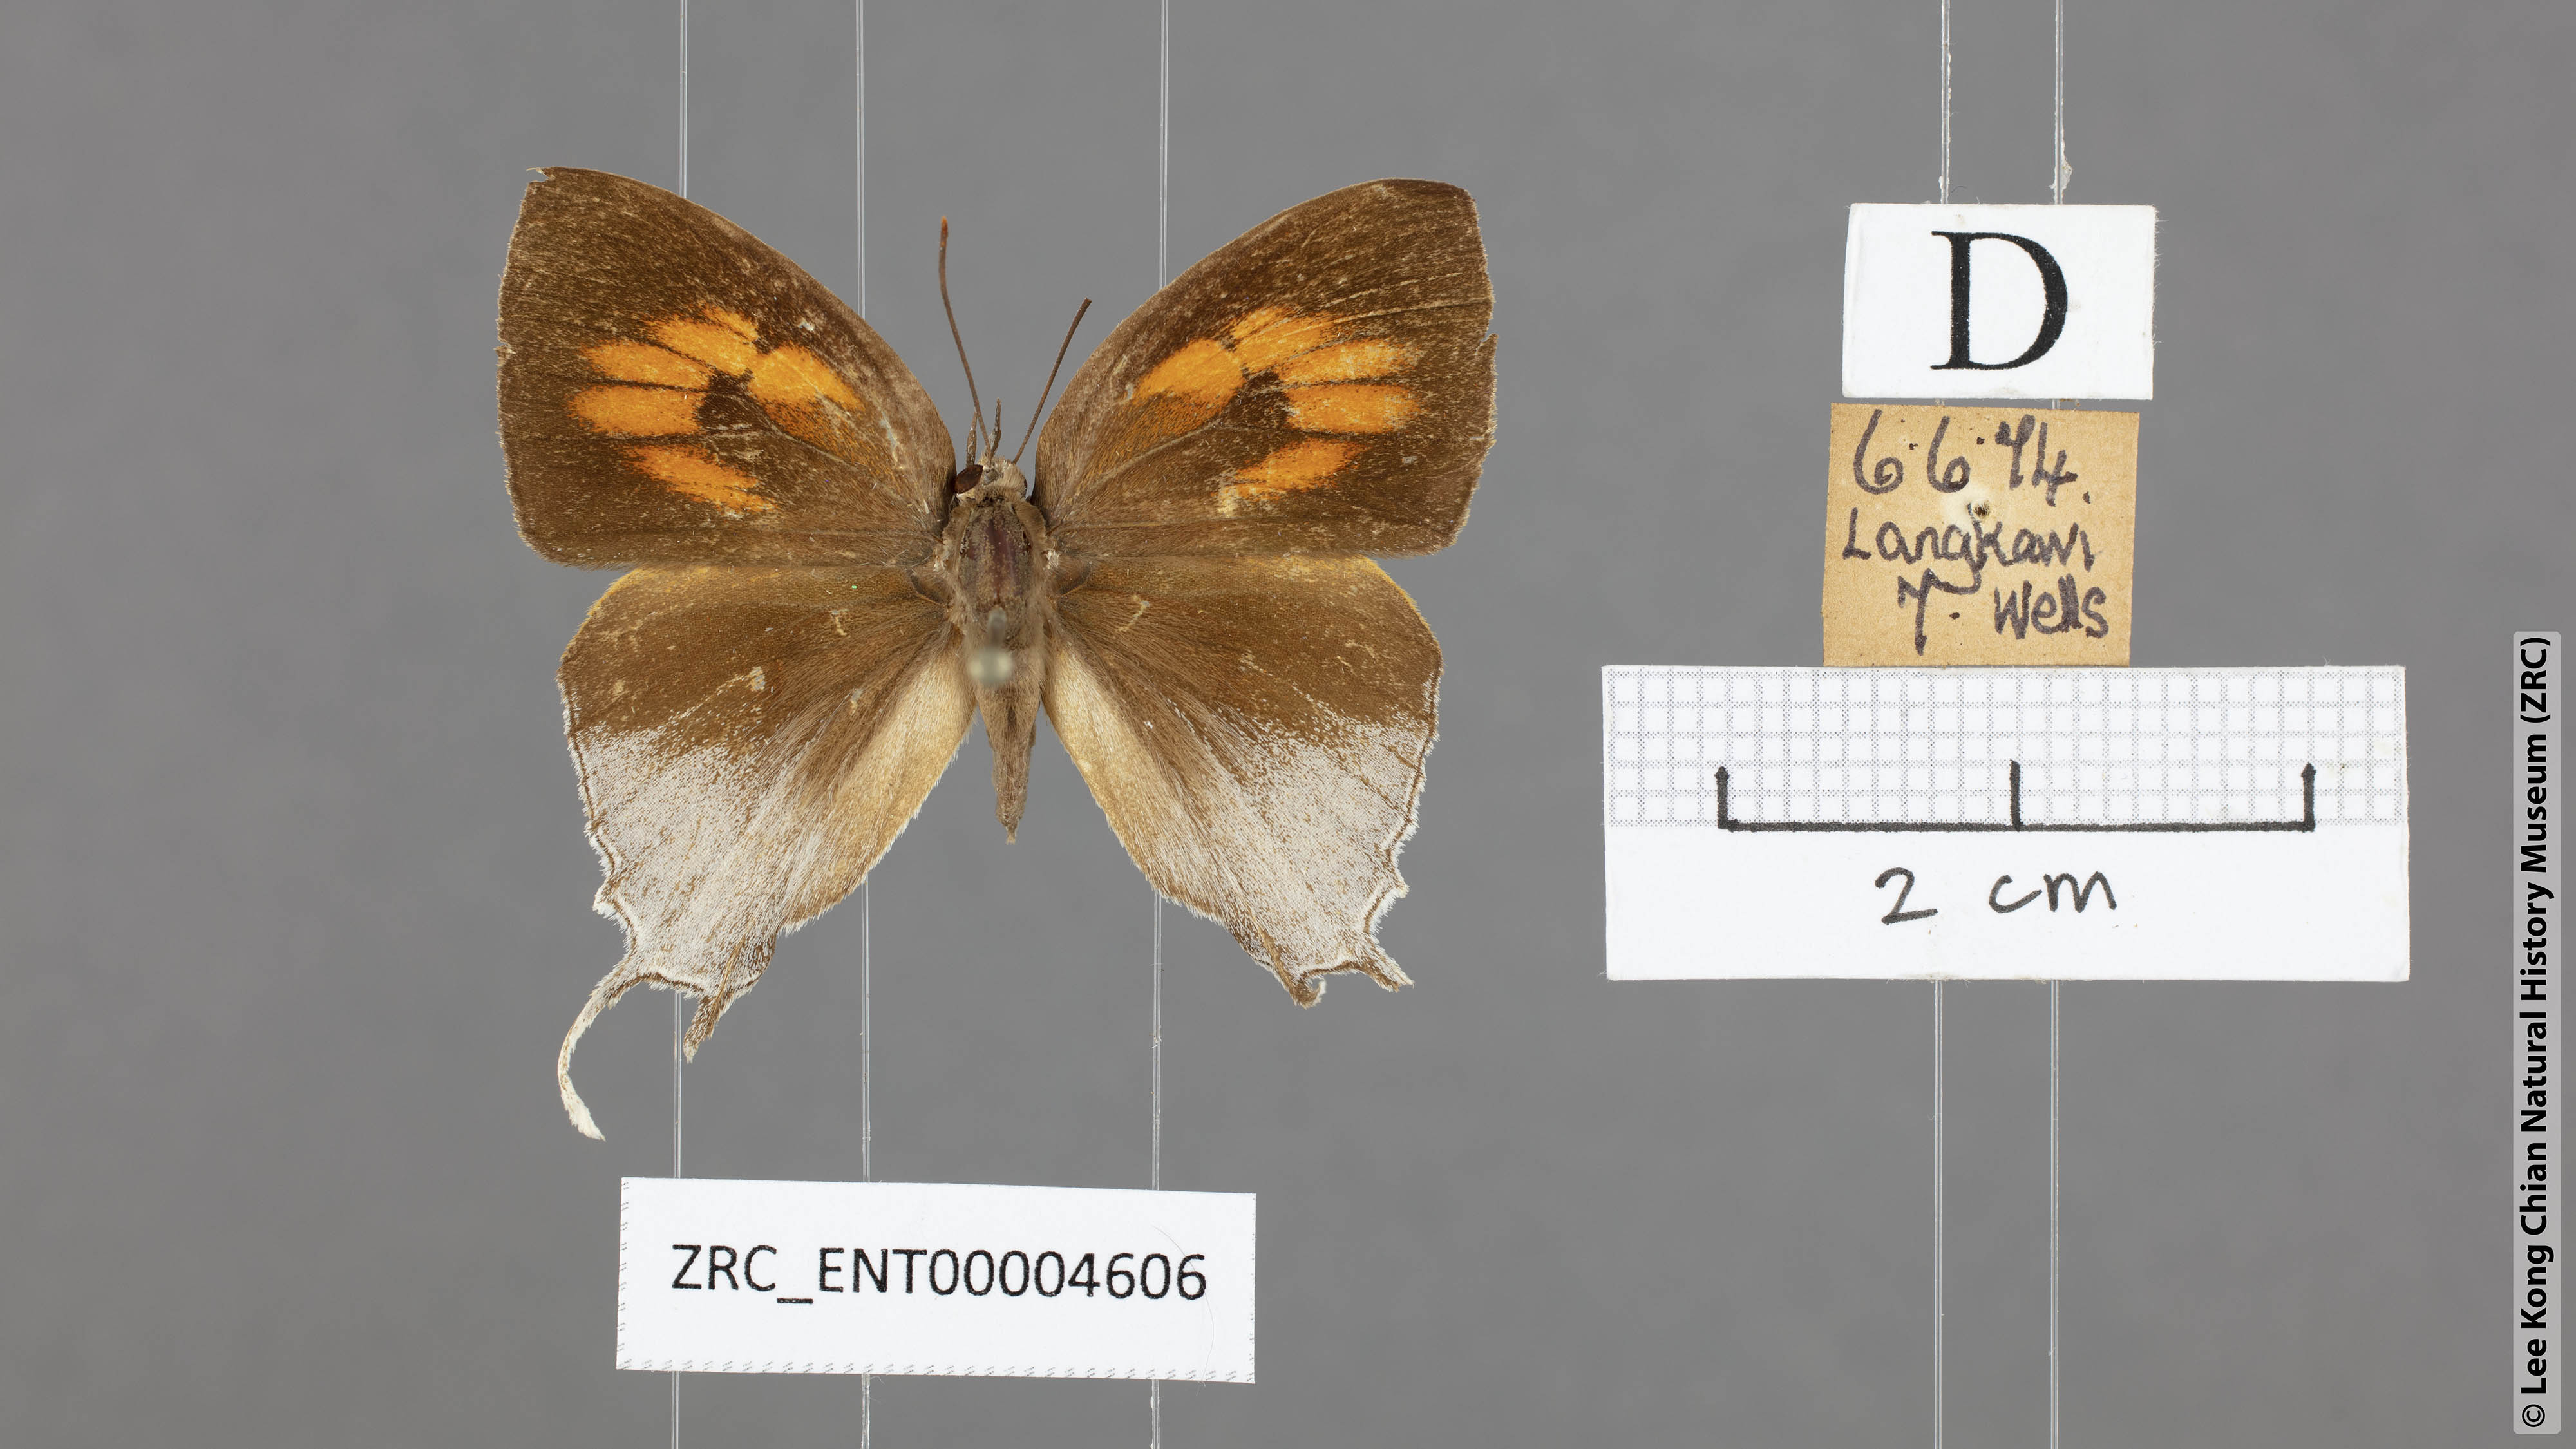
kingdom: Animalia
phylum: Arthropoda
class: Insecta
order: Lepidoptera
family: Lycaenidae
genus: Thamala
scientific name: Thamala marciana
